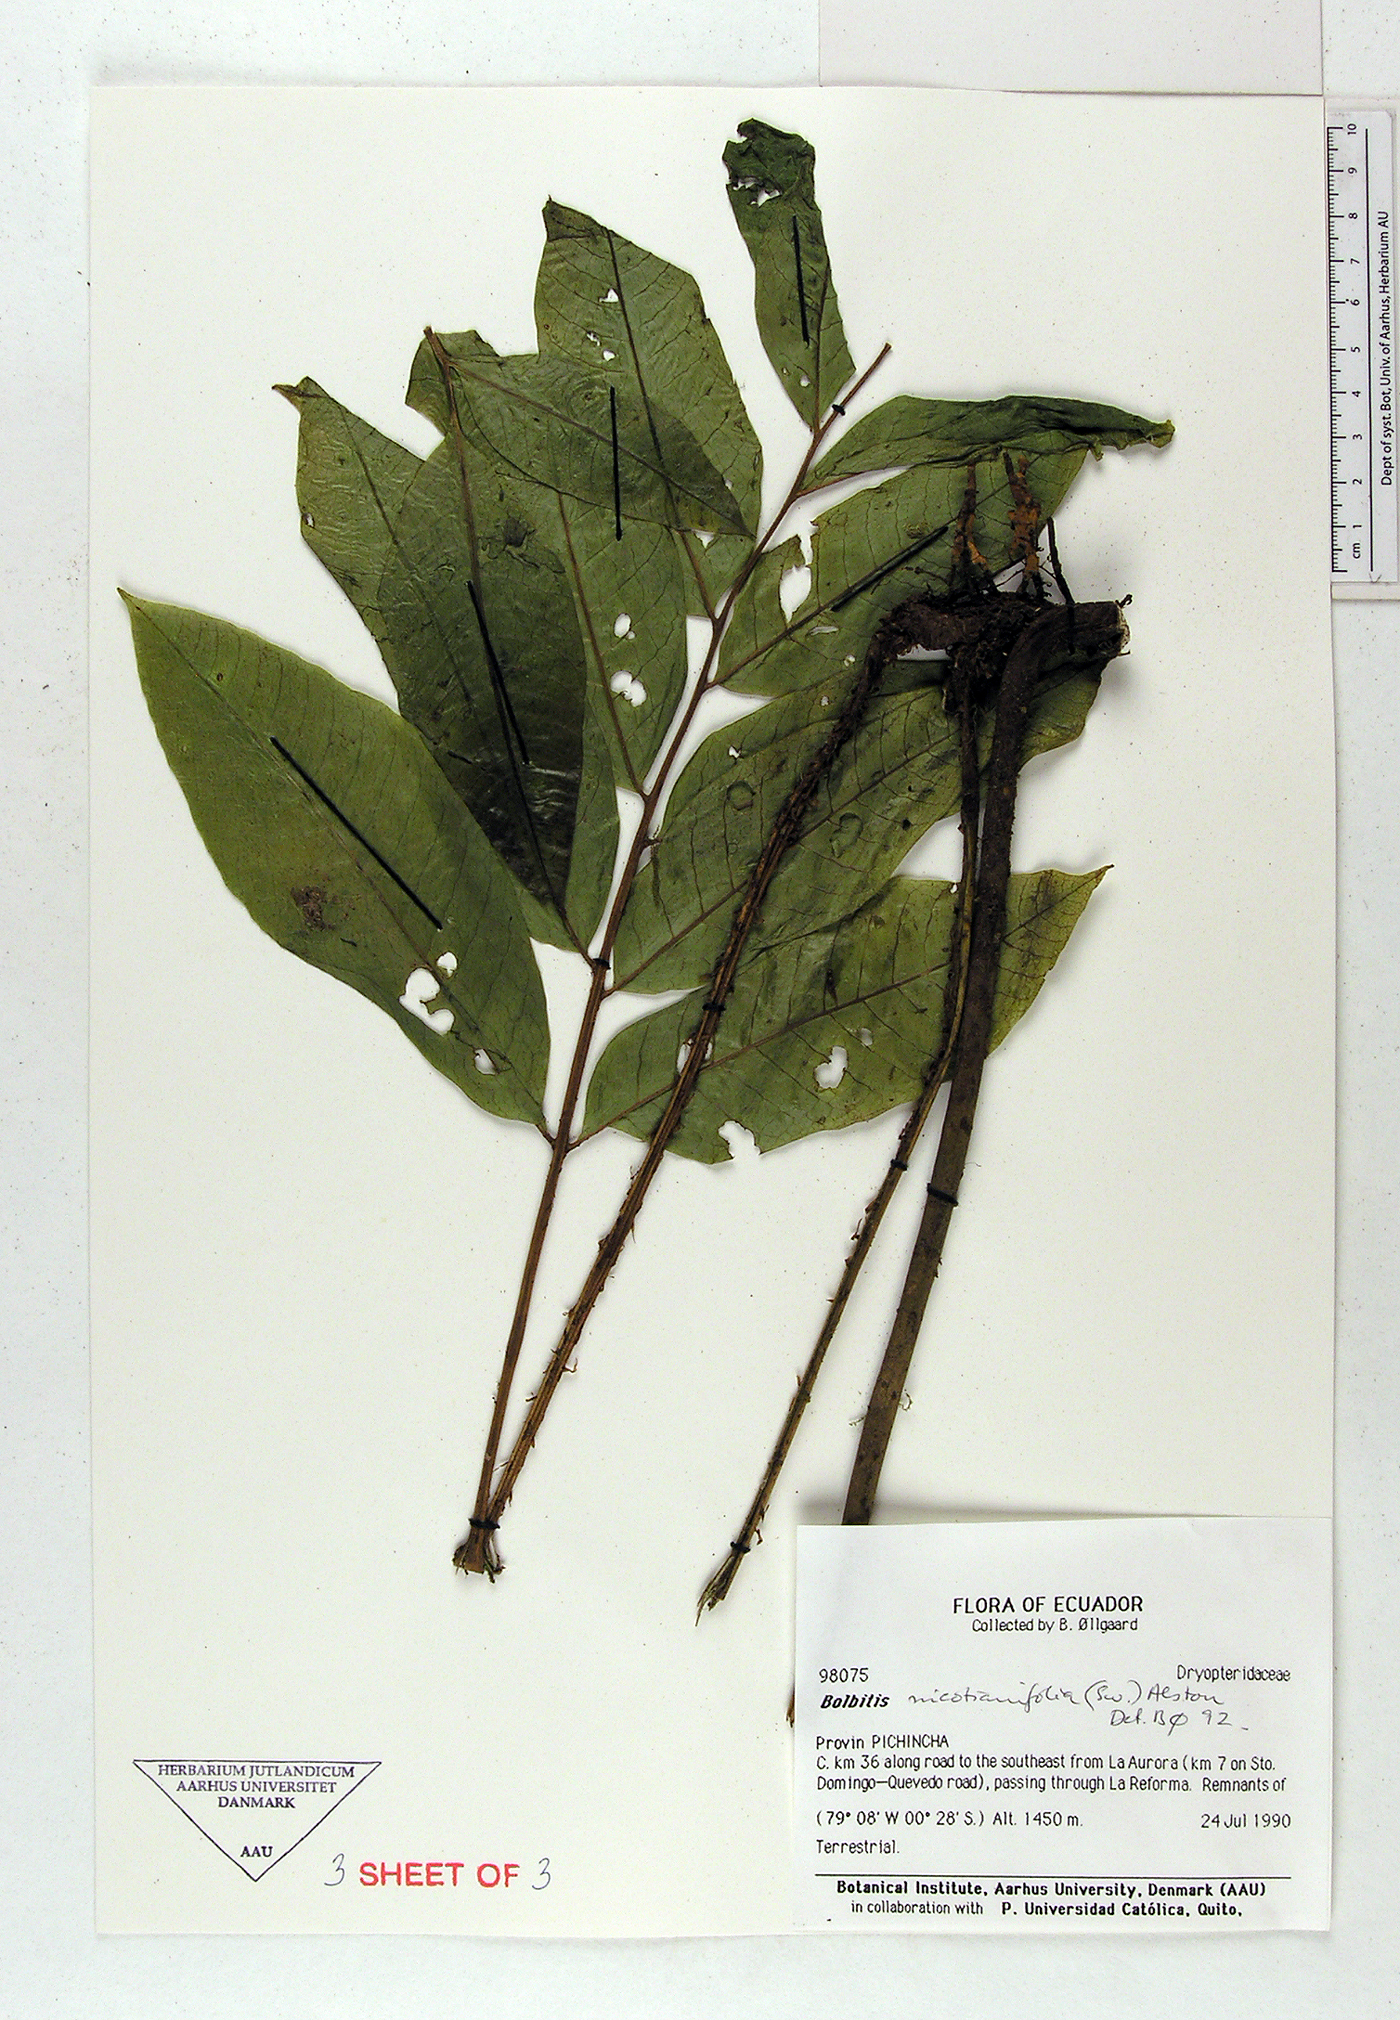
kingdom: Plantae
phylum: Tracheophyta
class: Polypodiopsida
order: Polypodiales
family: Dryopteridaceae
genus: Mickelia
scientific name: Mickelia nicotianifolia
